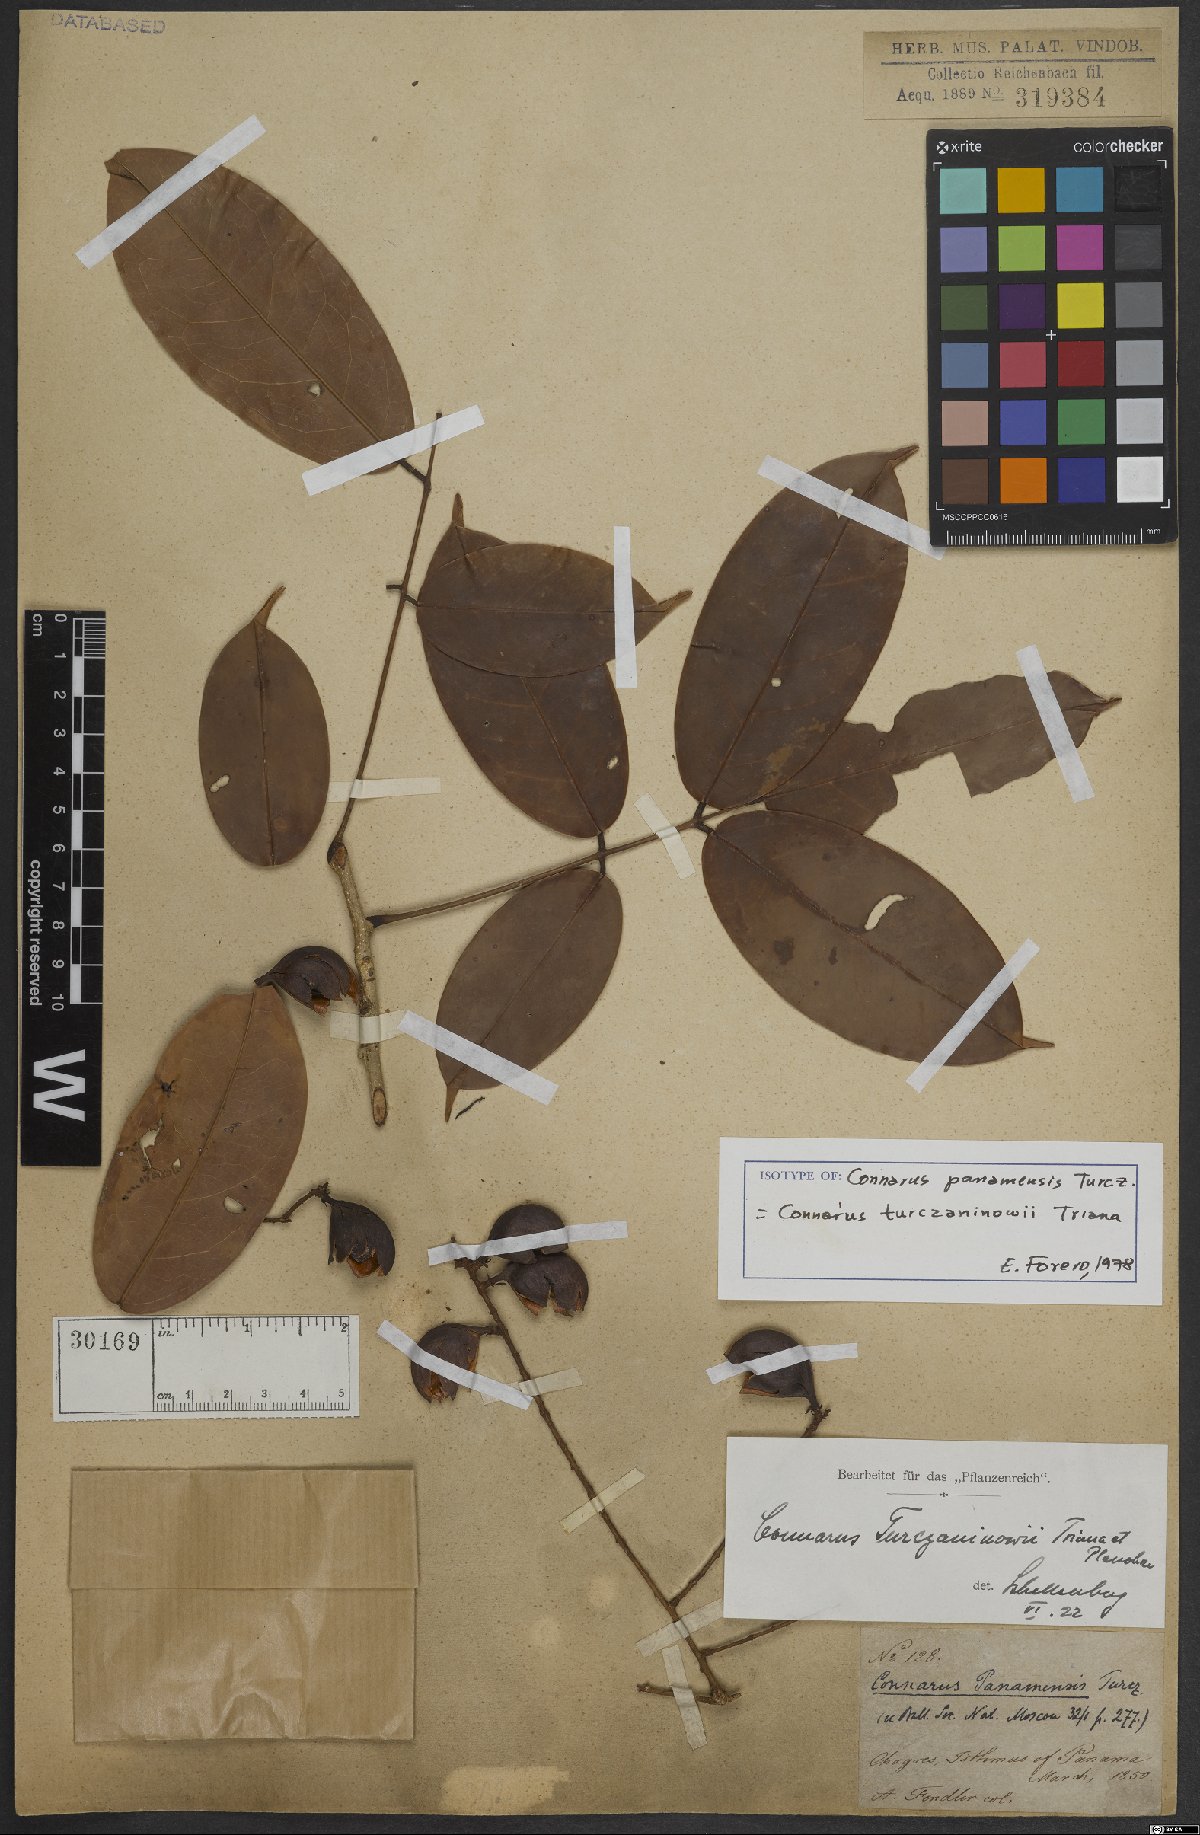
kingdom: Plantae
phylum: Tracheophyta
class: Magnoliopsida
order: Oxalidales
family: Connaraceae
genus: Connarus
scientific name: Connarus turczaninowii
